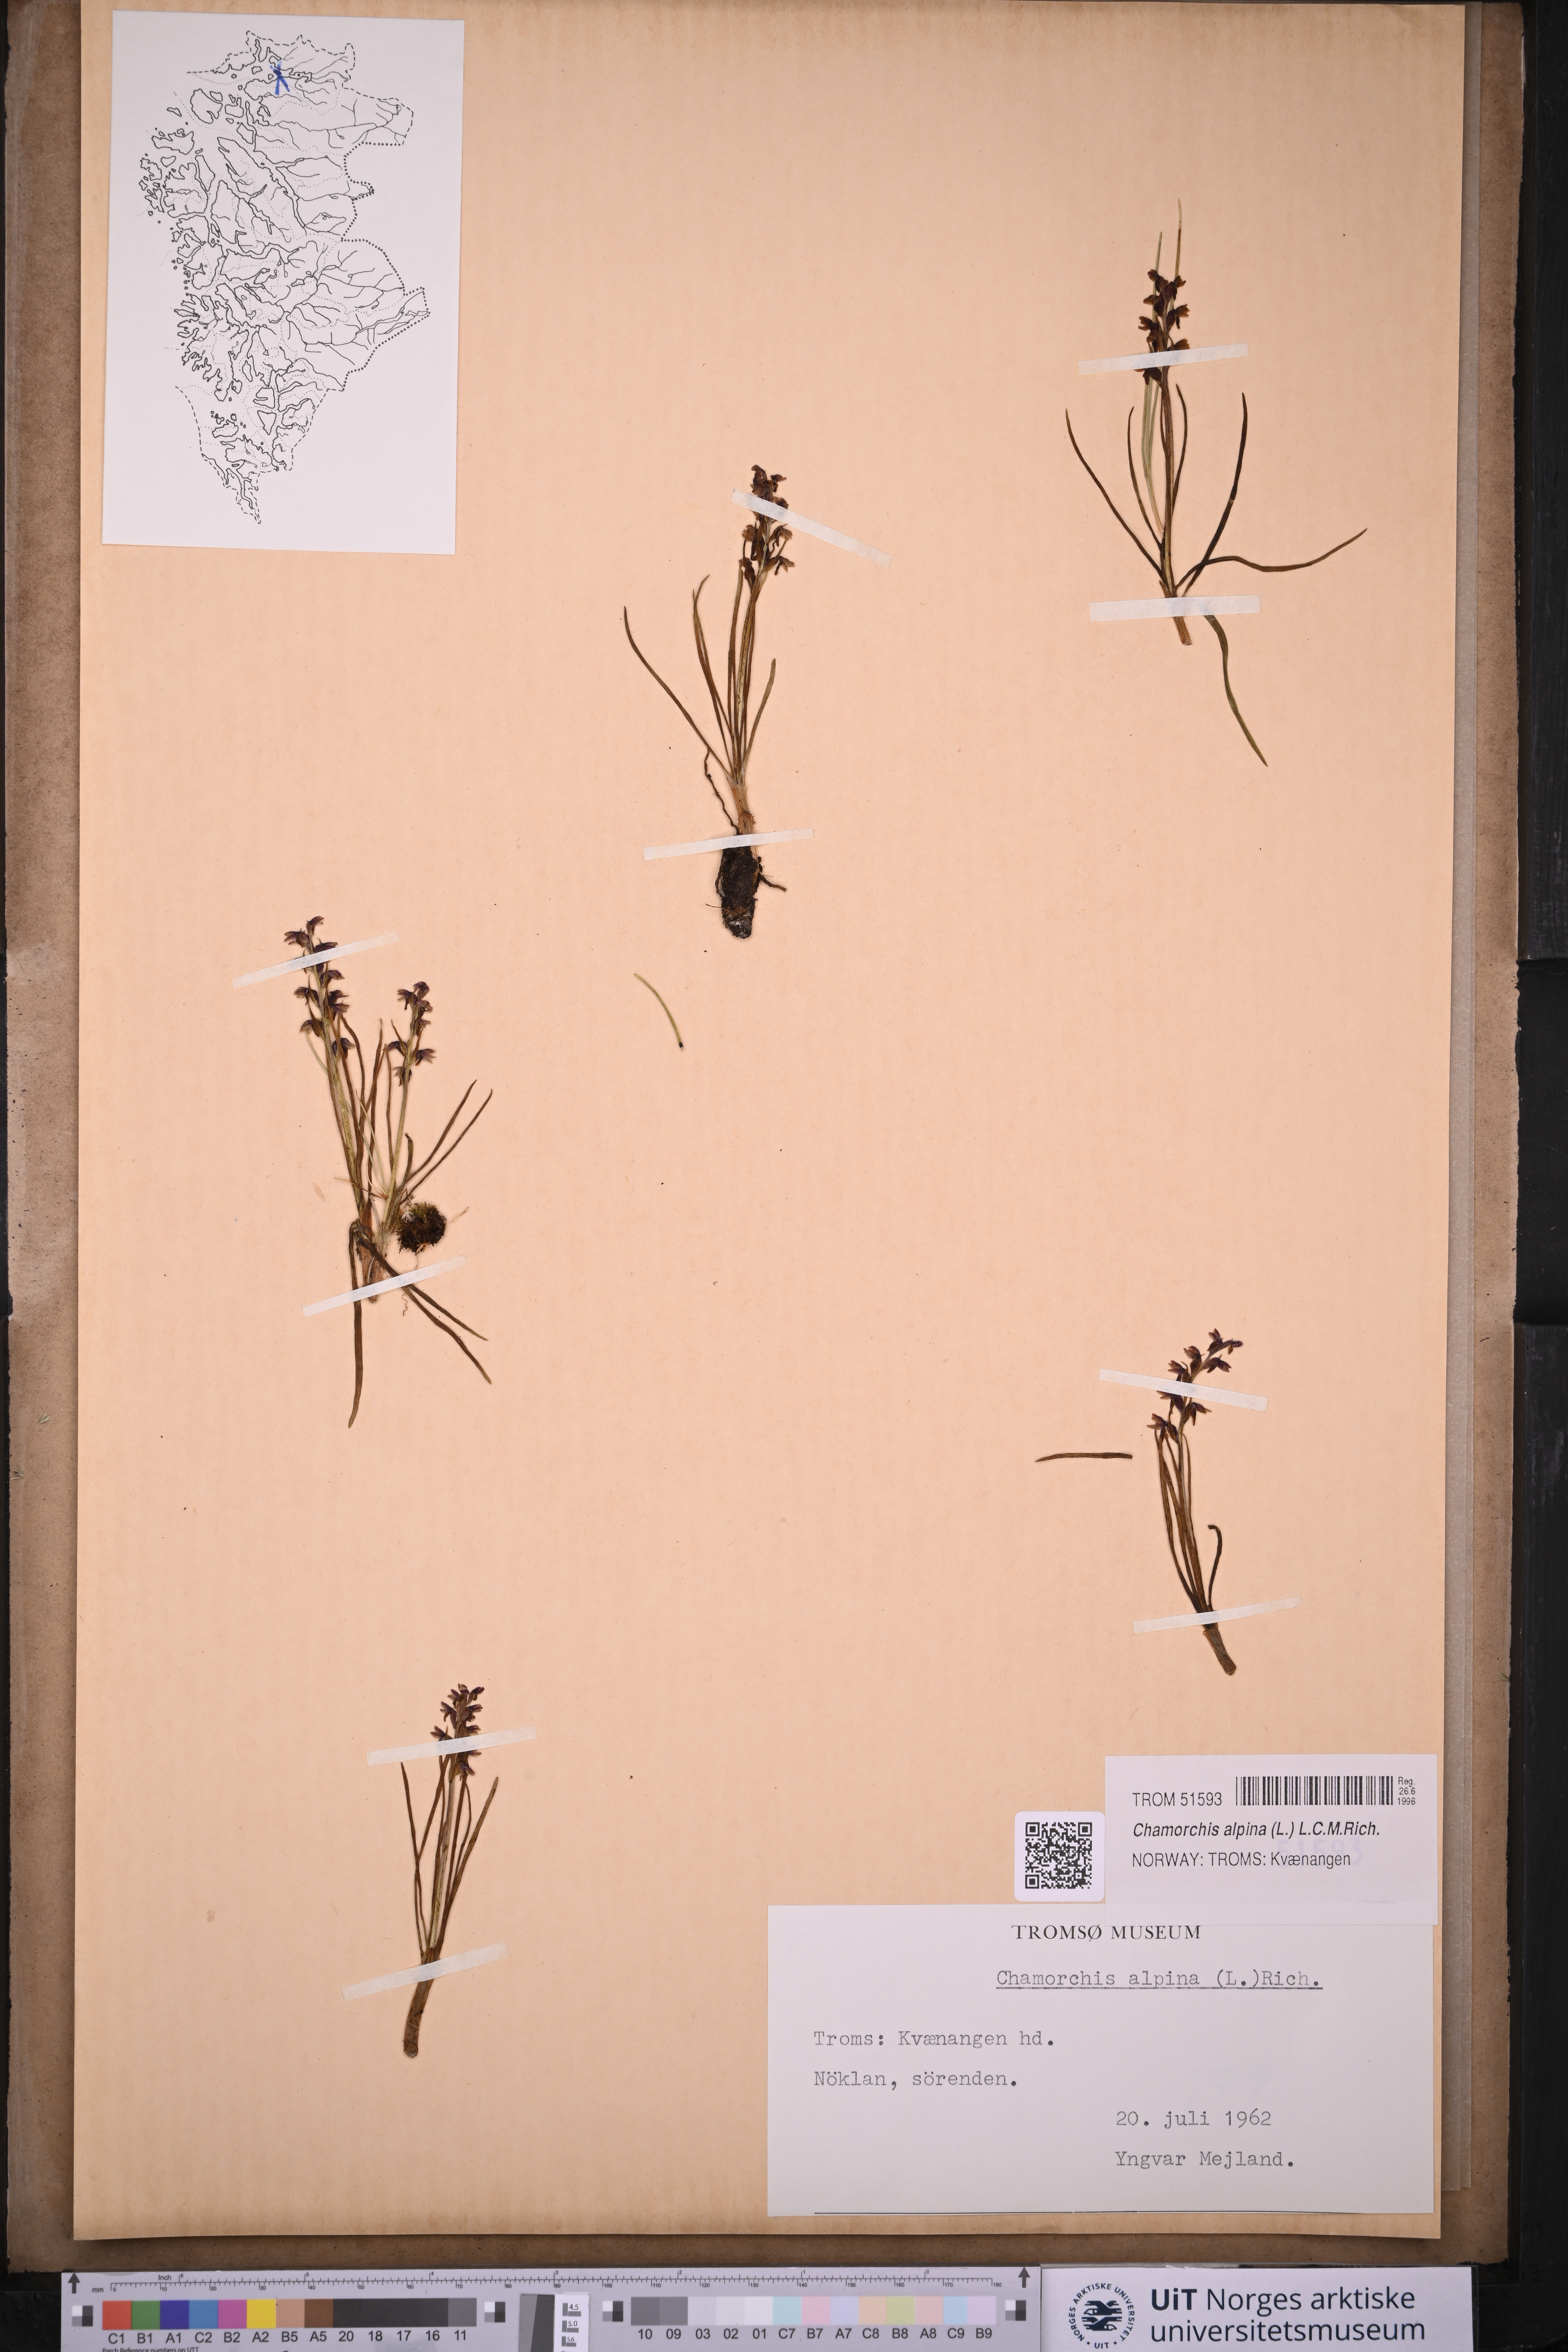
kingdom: Plantae
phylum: Tracheophyta
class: Liliopsida
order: Asparagales
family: Orchidaceae
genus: Chamorchis
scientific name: Chamorchis alpina
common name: Alpine chamorchis
